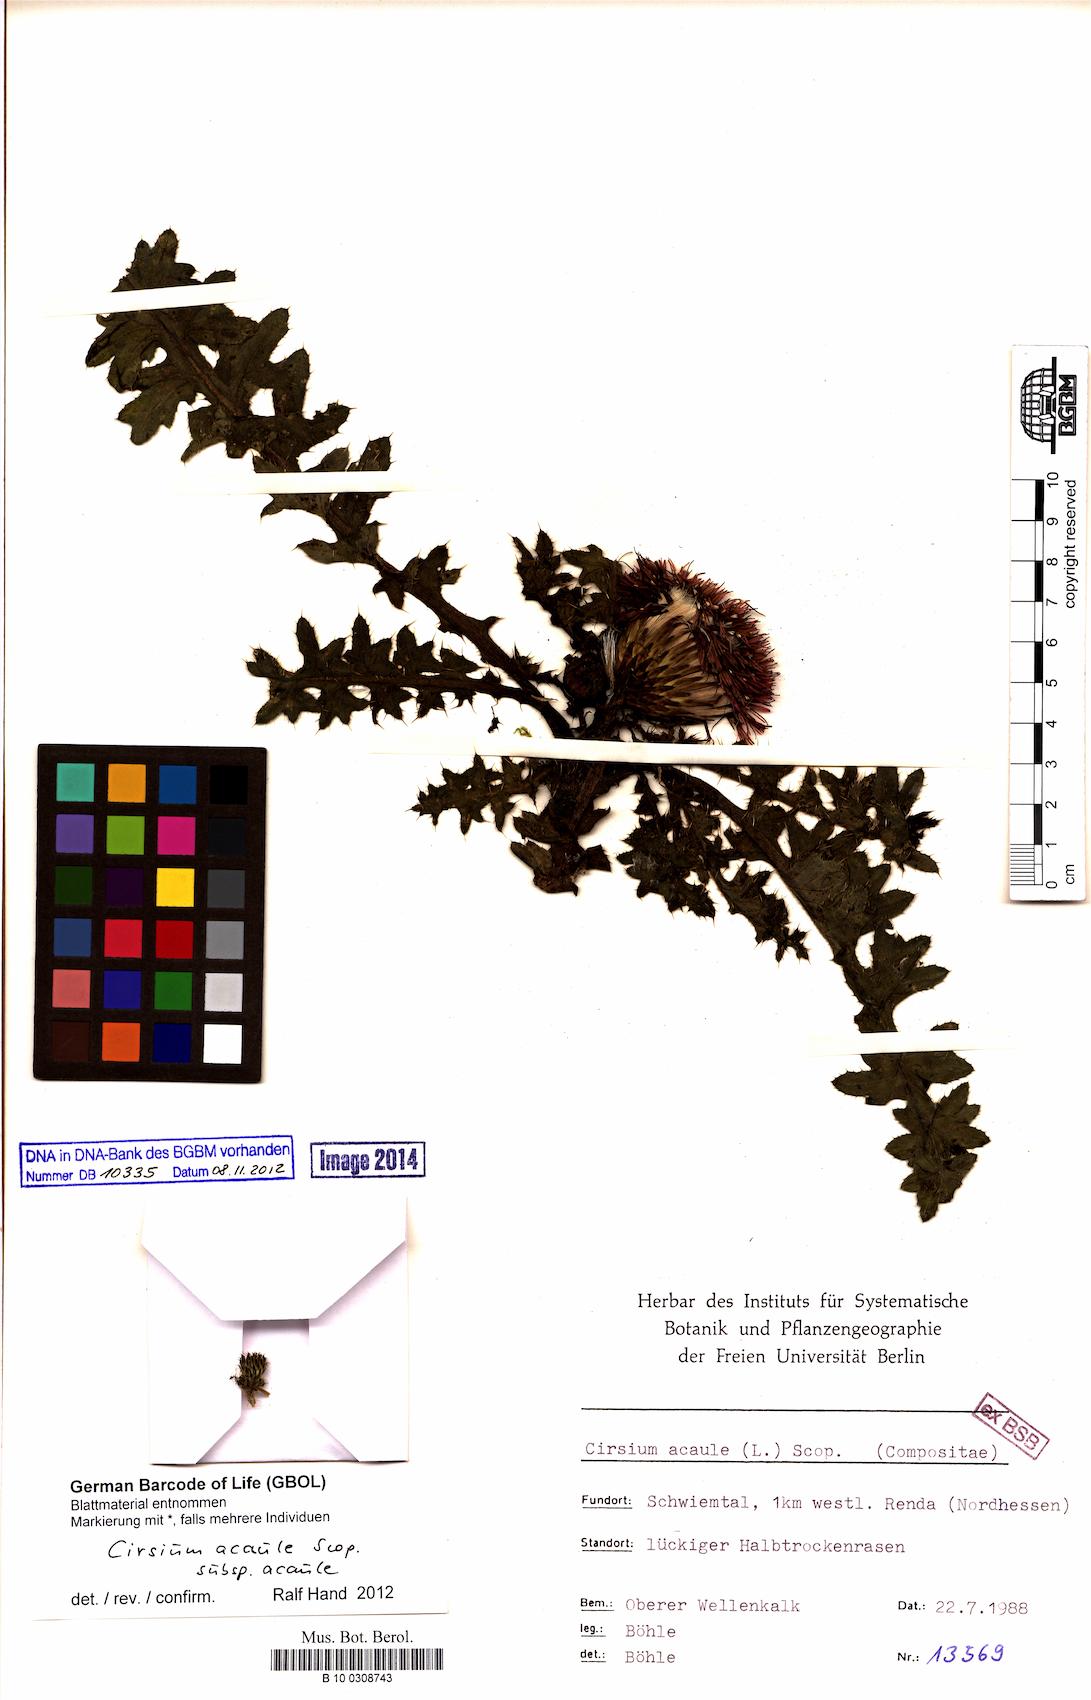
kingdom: Plantae
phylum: Tracheophyta
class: Magnoliopsida
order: Asterales
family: Asteraceae
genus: Cirsium
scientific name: Cirsium acaule
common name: Dwarf thistle
